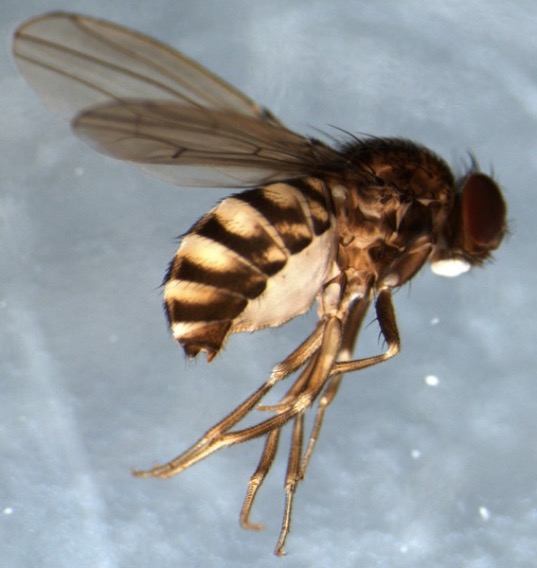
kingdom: Animalia
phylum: Arthropoda
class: Insecta
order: Diptera
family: Drosophilidae
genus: Drosophila
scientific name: Drosophila repleta
